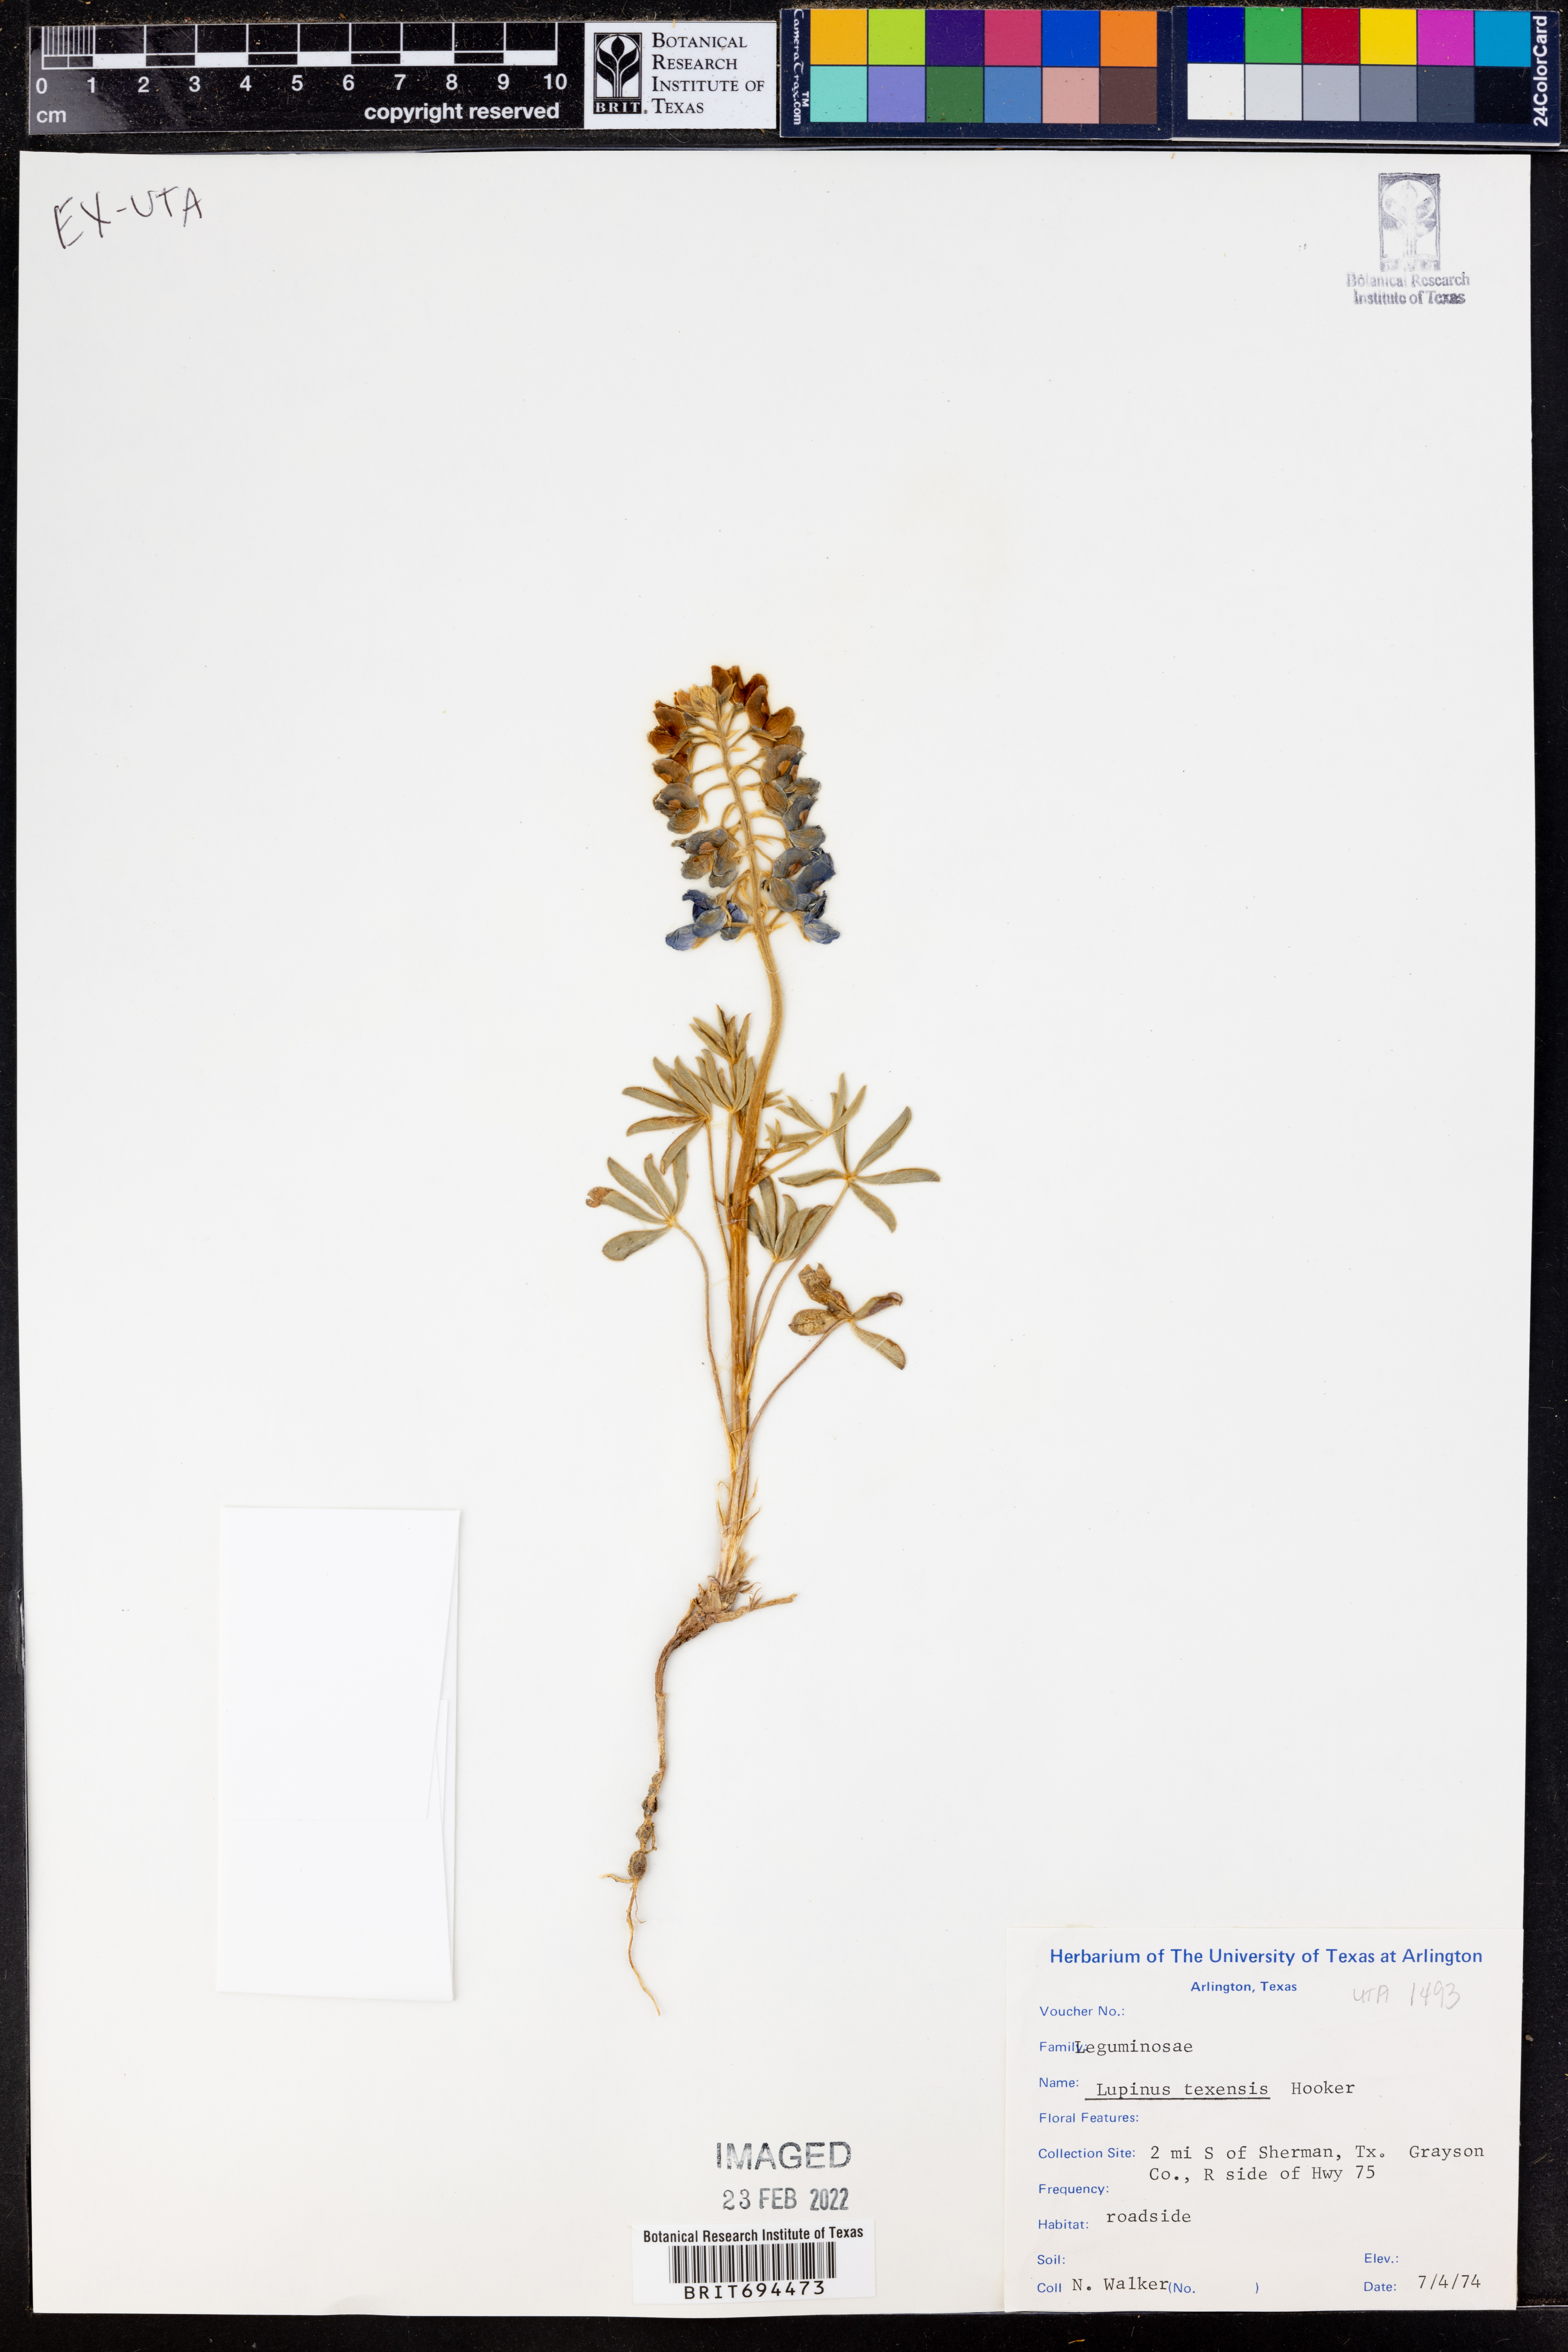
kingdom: Plantae
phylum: Tracheophyta
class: Magnoliopsida
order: Fabales
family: Fabaceae
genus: Lupinus
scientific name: Lupinus texensis
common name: Texas bluebonnet
